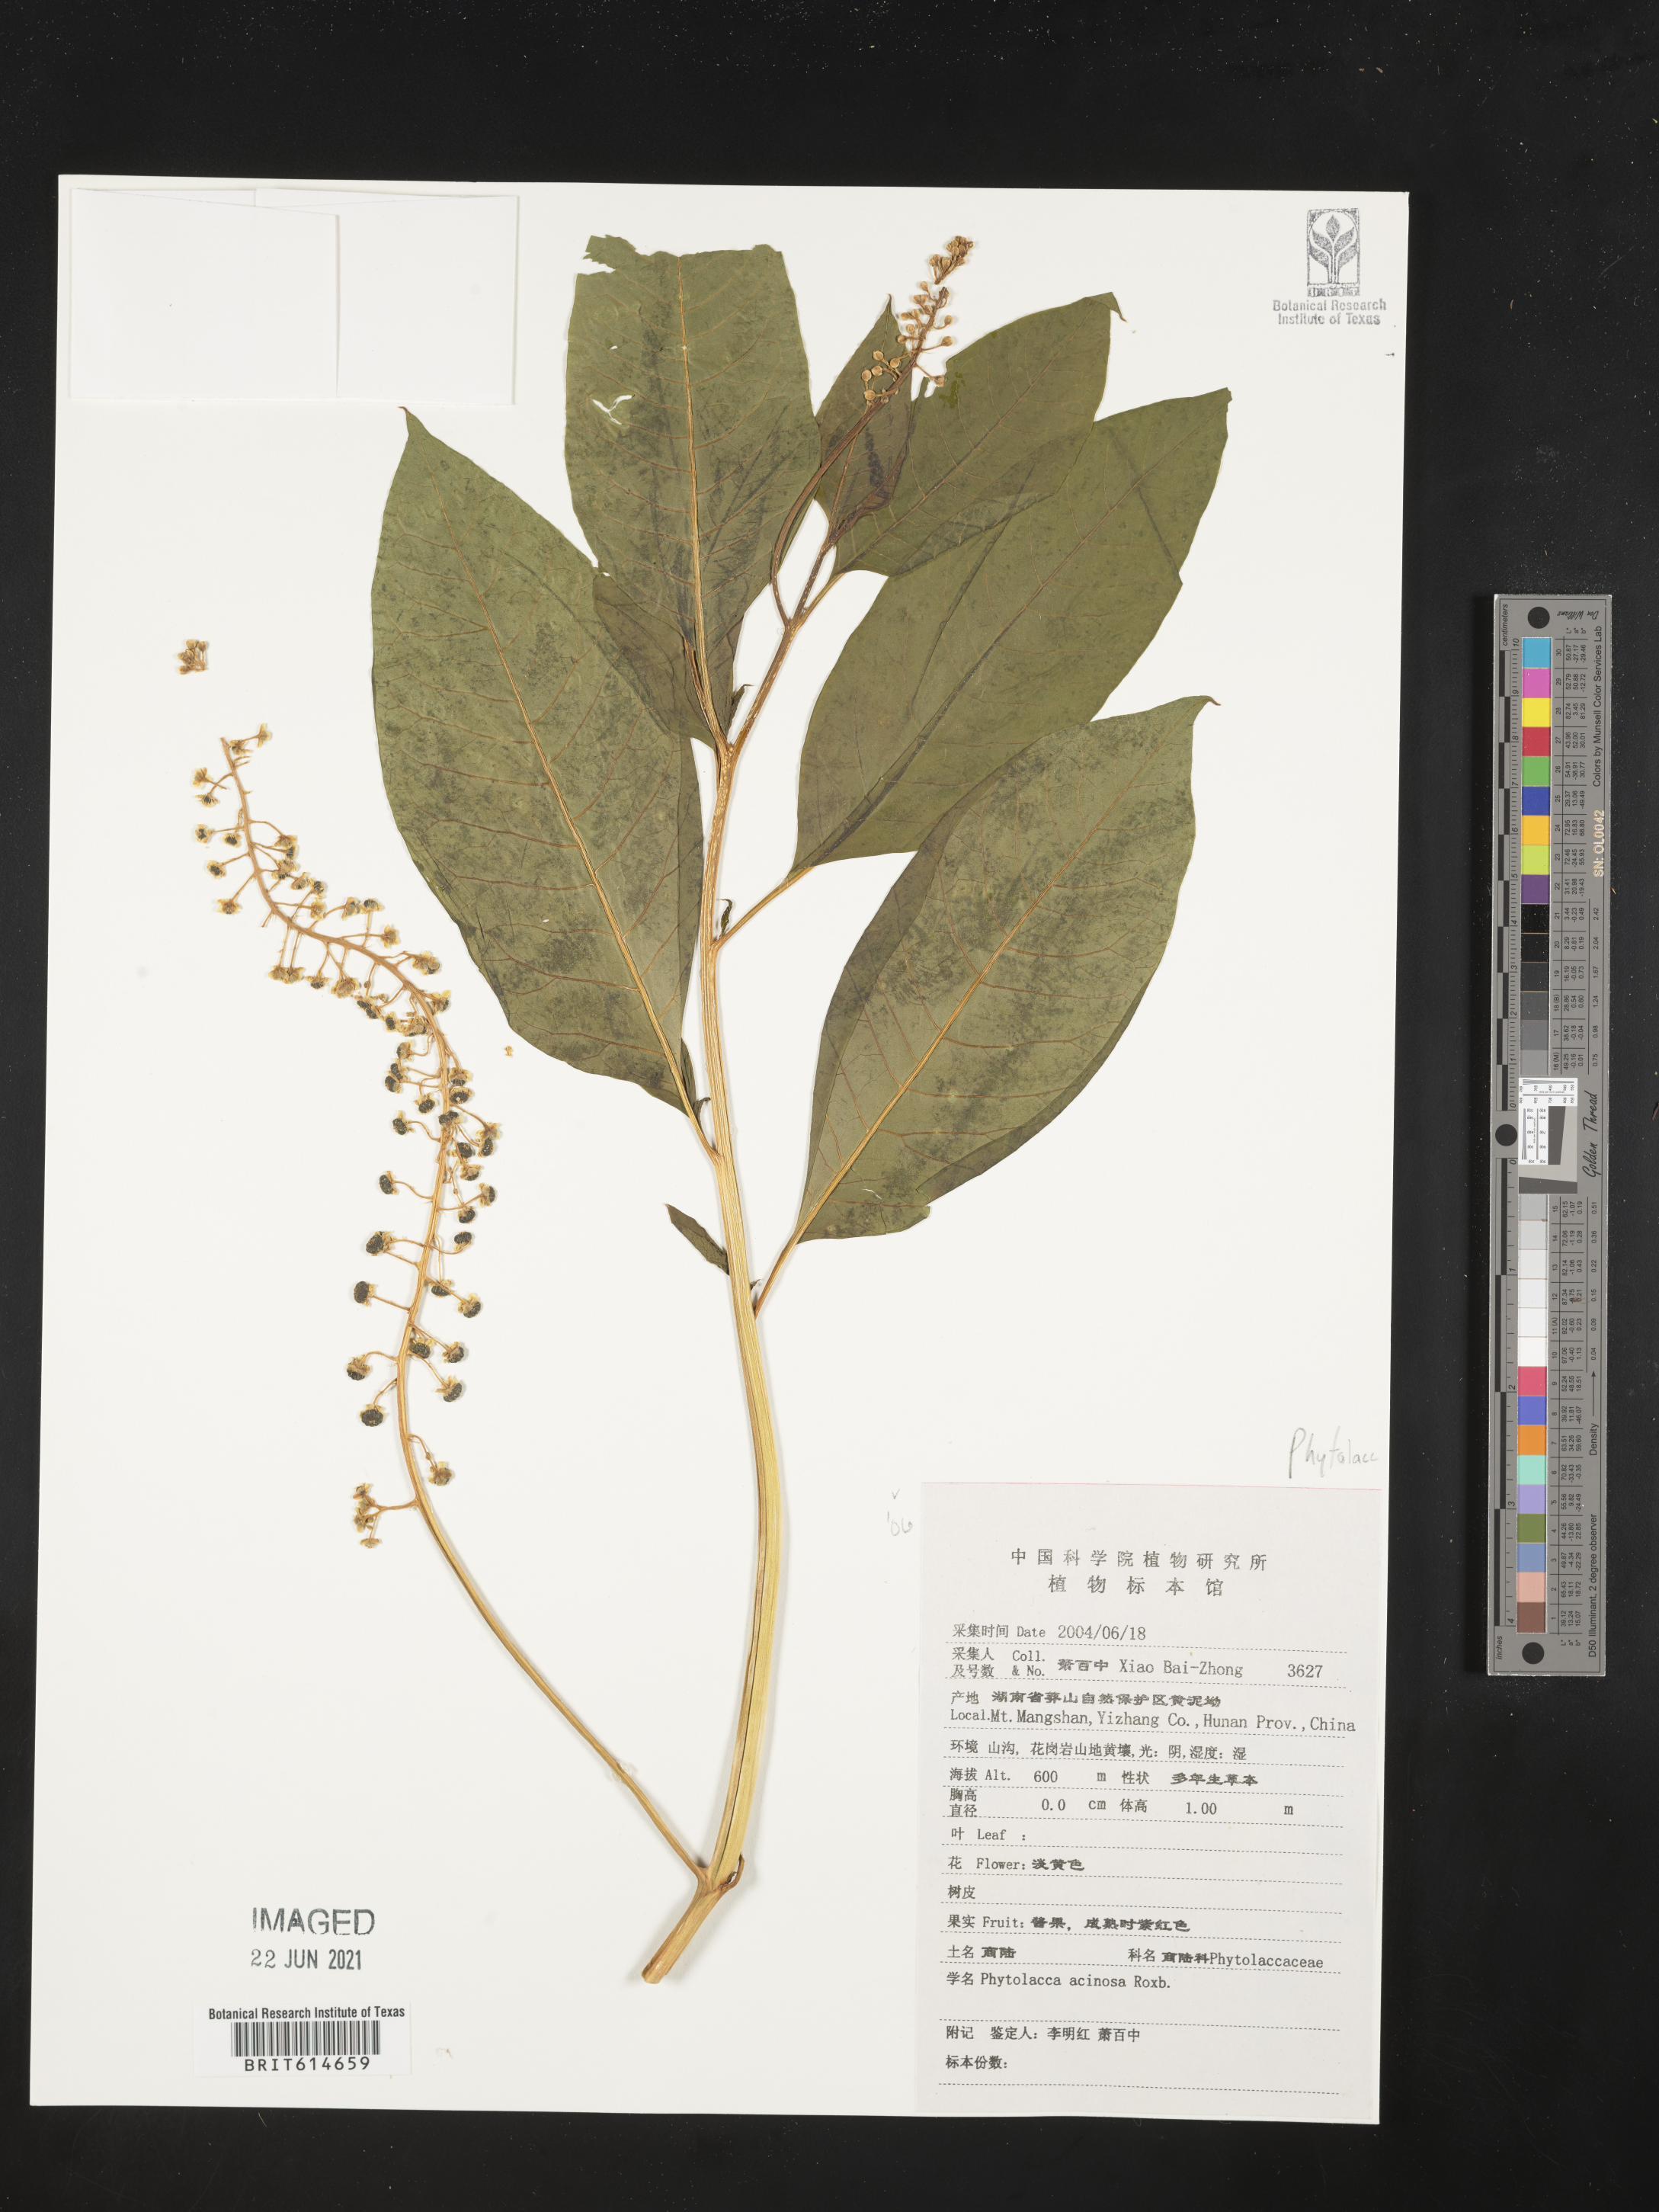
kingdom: Plantae
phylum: Tracheophyta
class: Magnoliopsida
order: Caryophyllales
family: Phytolaccaceae
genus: Phytolacca
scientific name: Phytolacca acinosa
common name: Indian pokeweed
